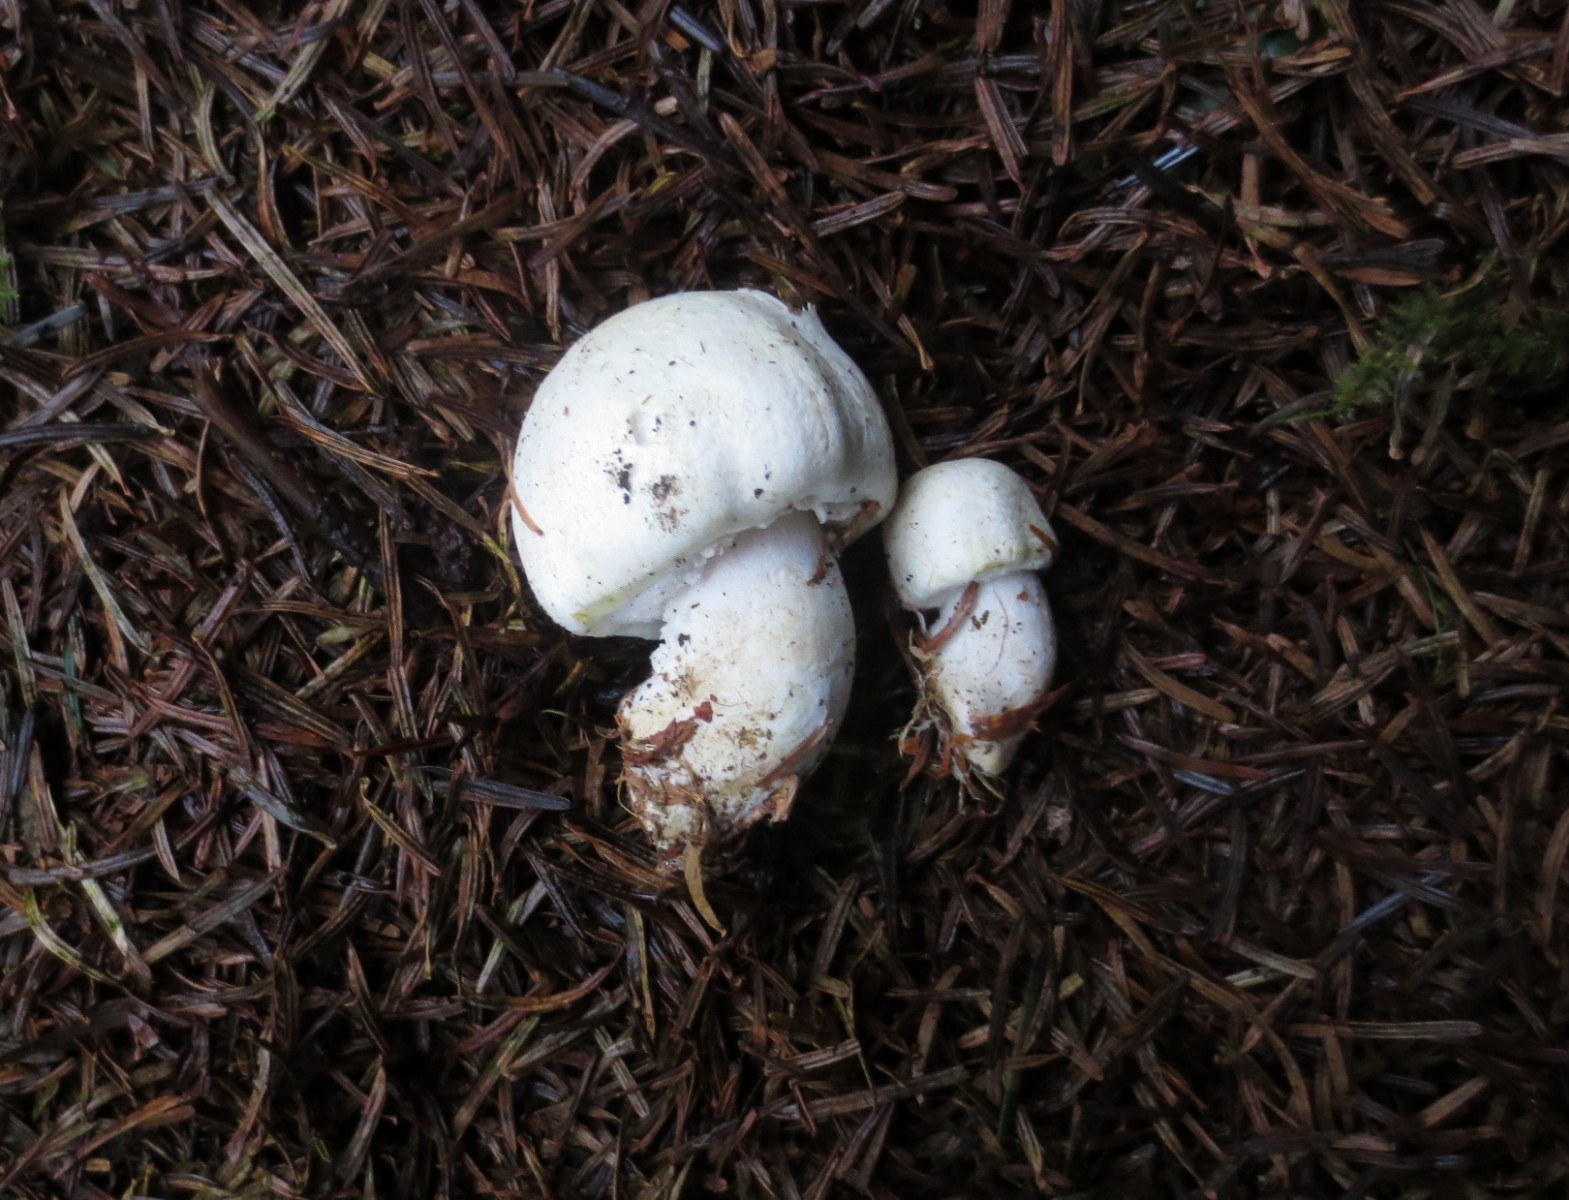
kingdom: Fungi
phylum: Basidiomycota
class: Agaricomycetes
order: Agaricales
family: Agaricaceae
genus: Agaricus
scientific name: Agaricus sylvicola
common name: skiveknoldet champignon
